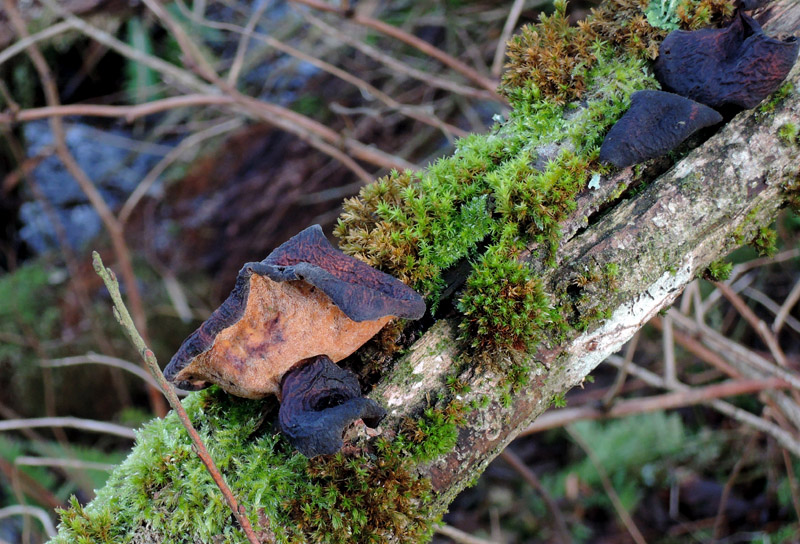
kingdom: Fungi
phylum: Basidiomycota
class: Agaricomycetes
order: Polyporales
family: Polyporaceae
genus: Picipes
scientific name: Picipes tubaeformis
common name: trompet-stilkporesvamp
